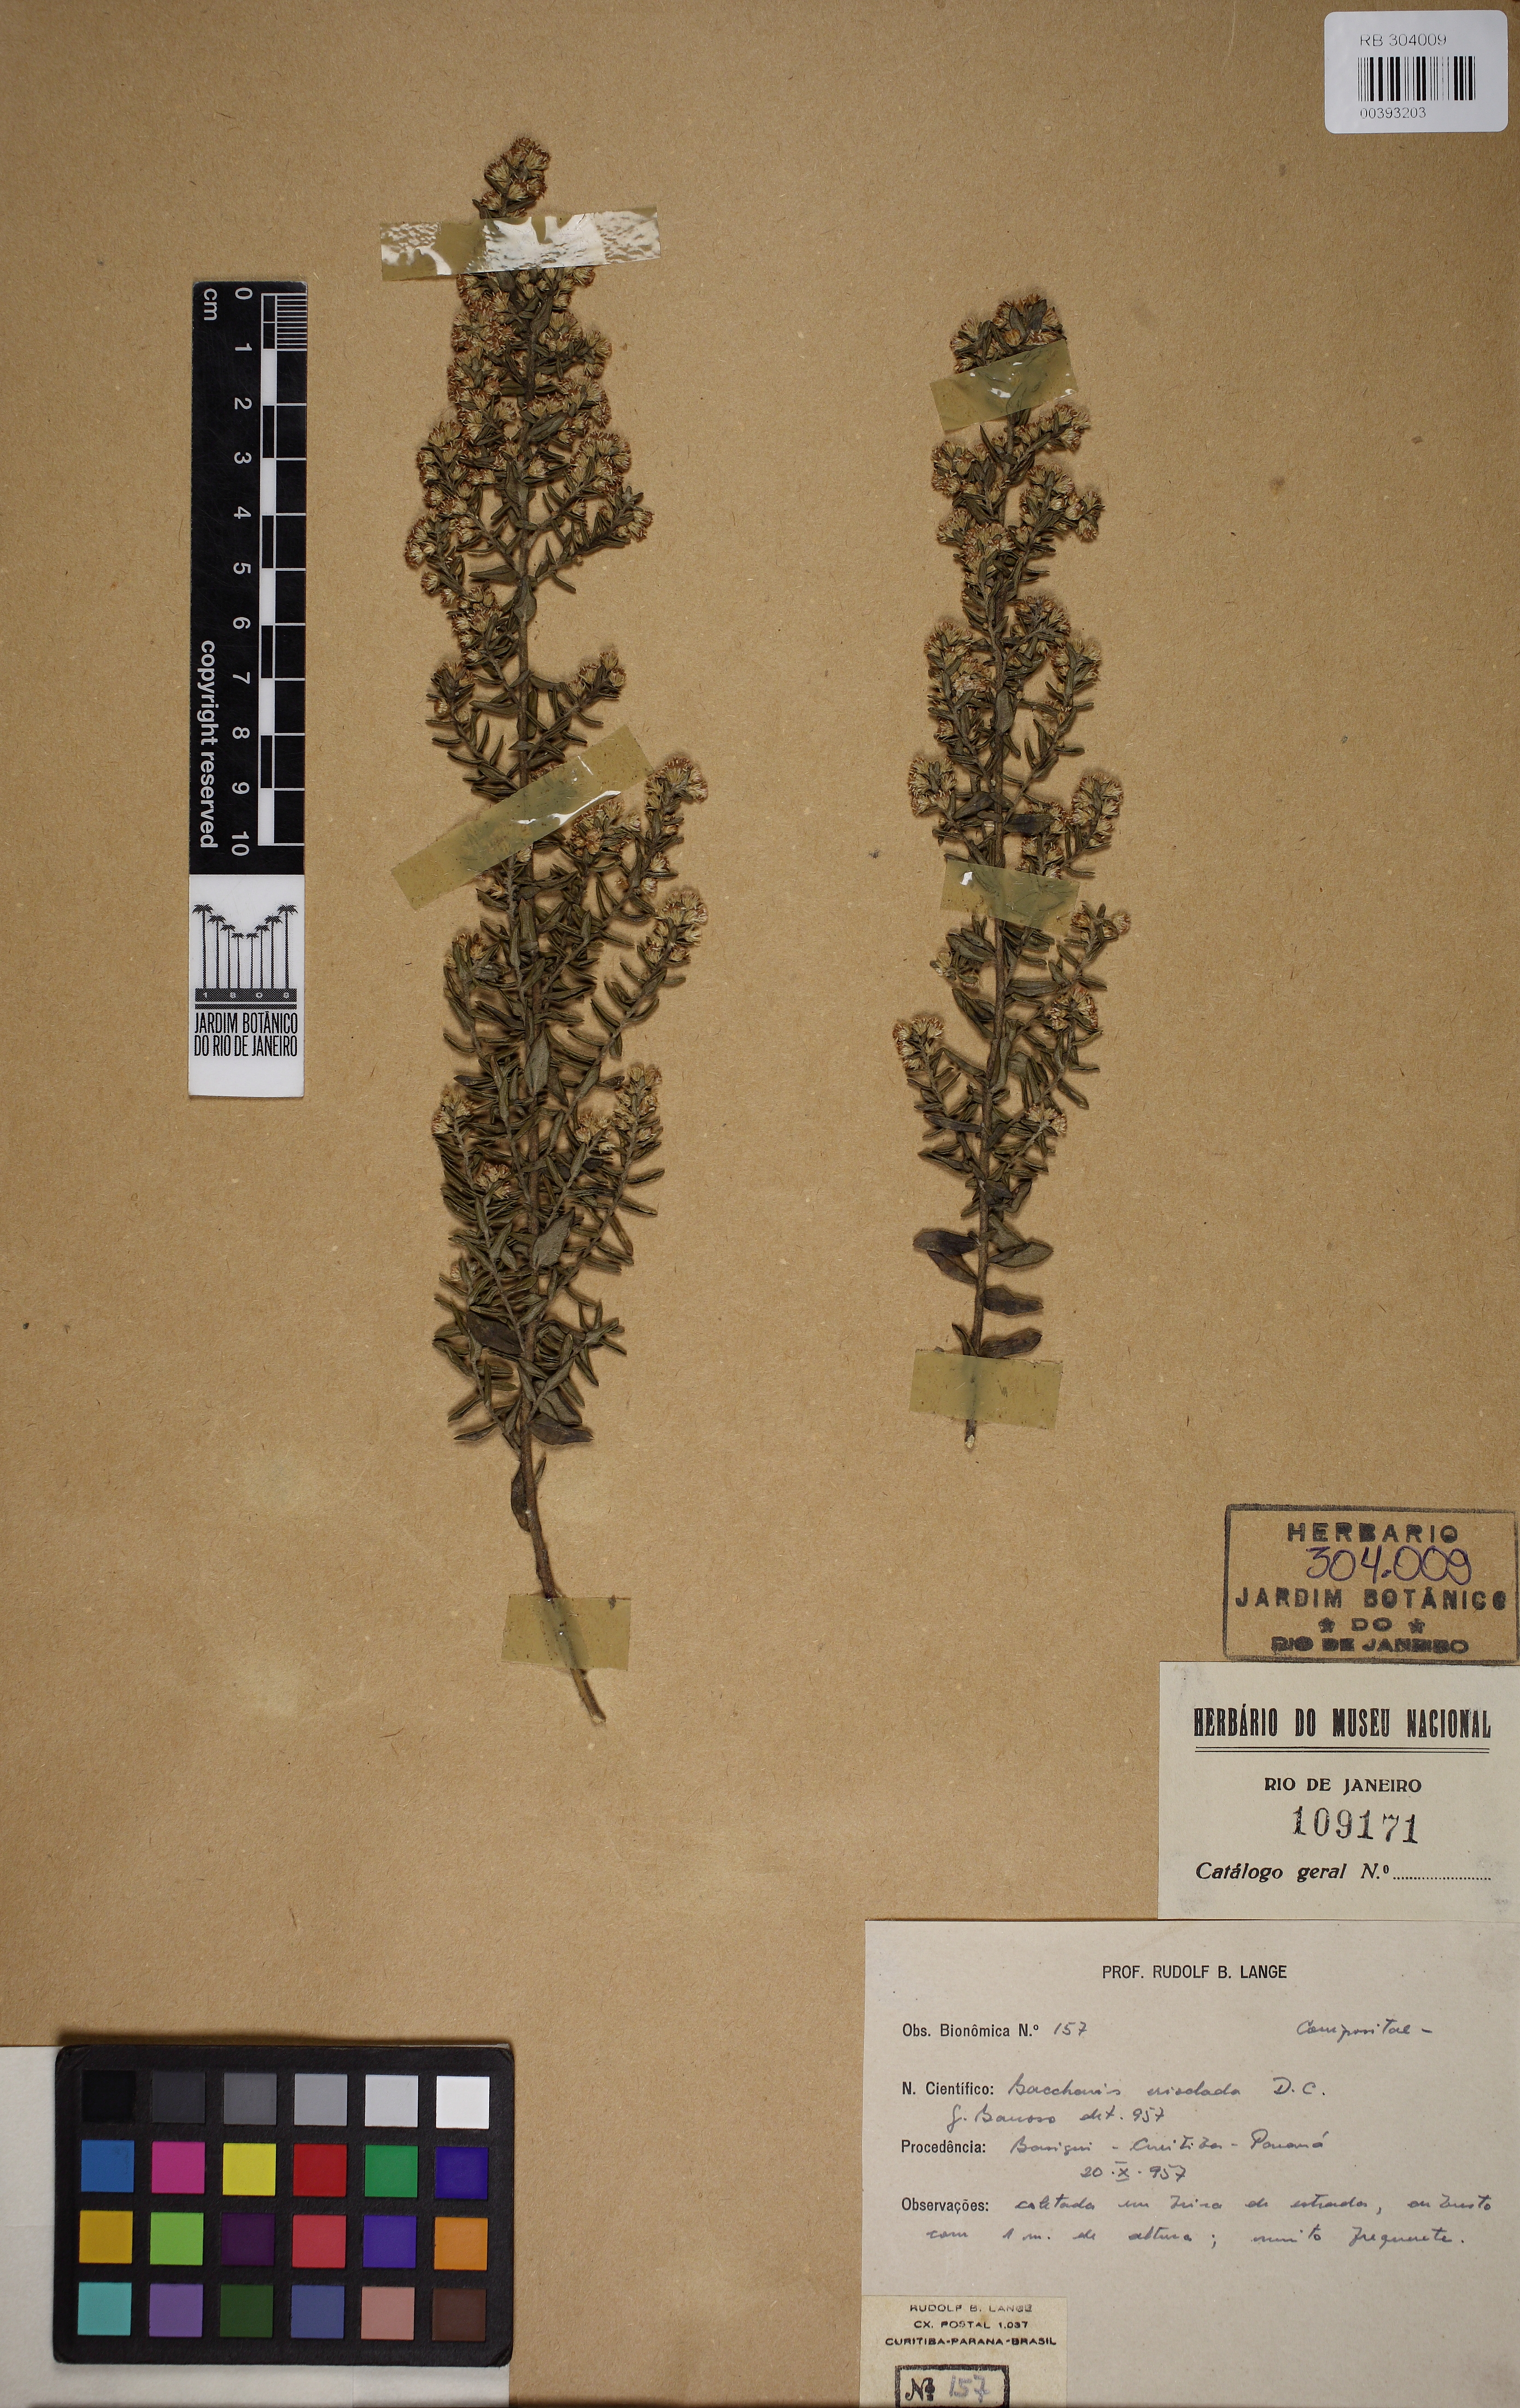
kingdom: Plantae
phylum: Tracheophyta
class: Magnoliopsida
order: Asterales
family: Asteraceae
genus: Baccharis
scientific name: Baccharis erioclada
